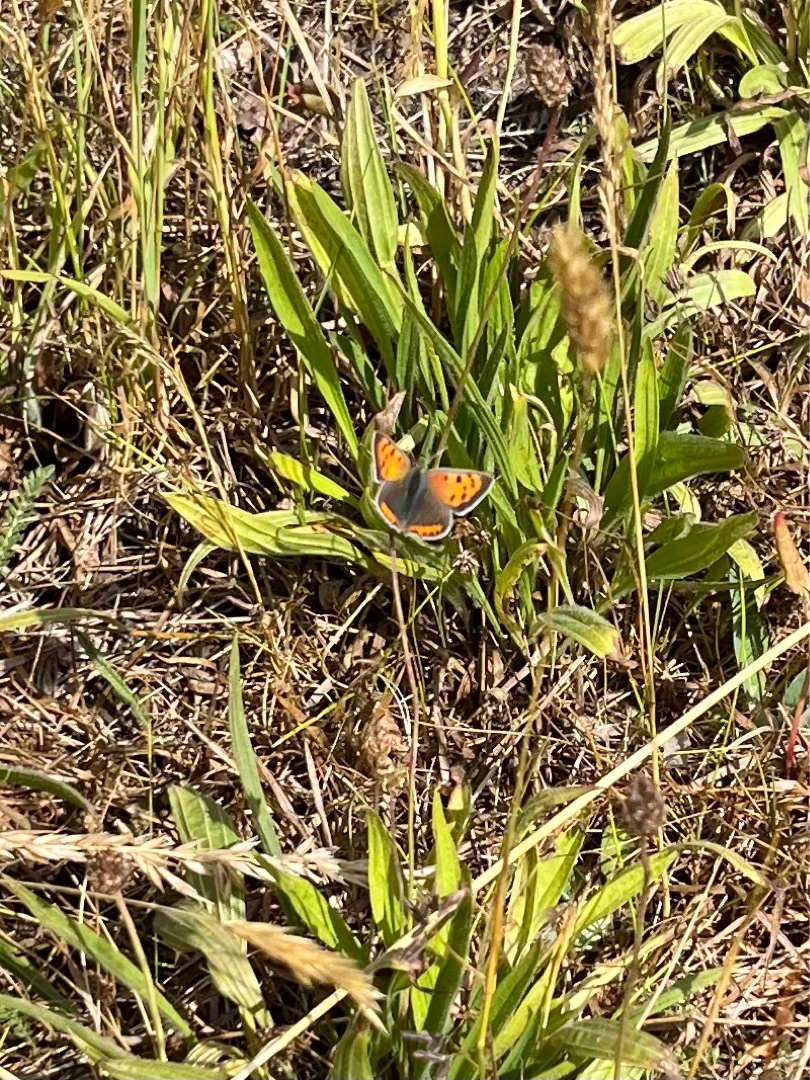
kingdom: Animalia
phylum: Arthropoda
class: Insecta
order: Lepidoptera
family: Lycaenidae
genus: Lycaena
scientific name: Lycaena phlaeas
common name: Lille ildfugl
